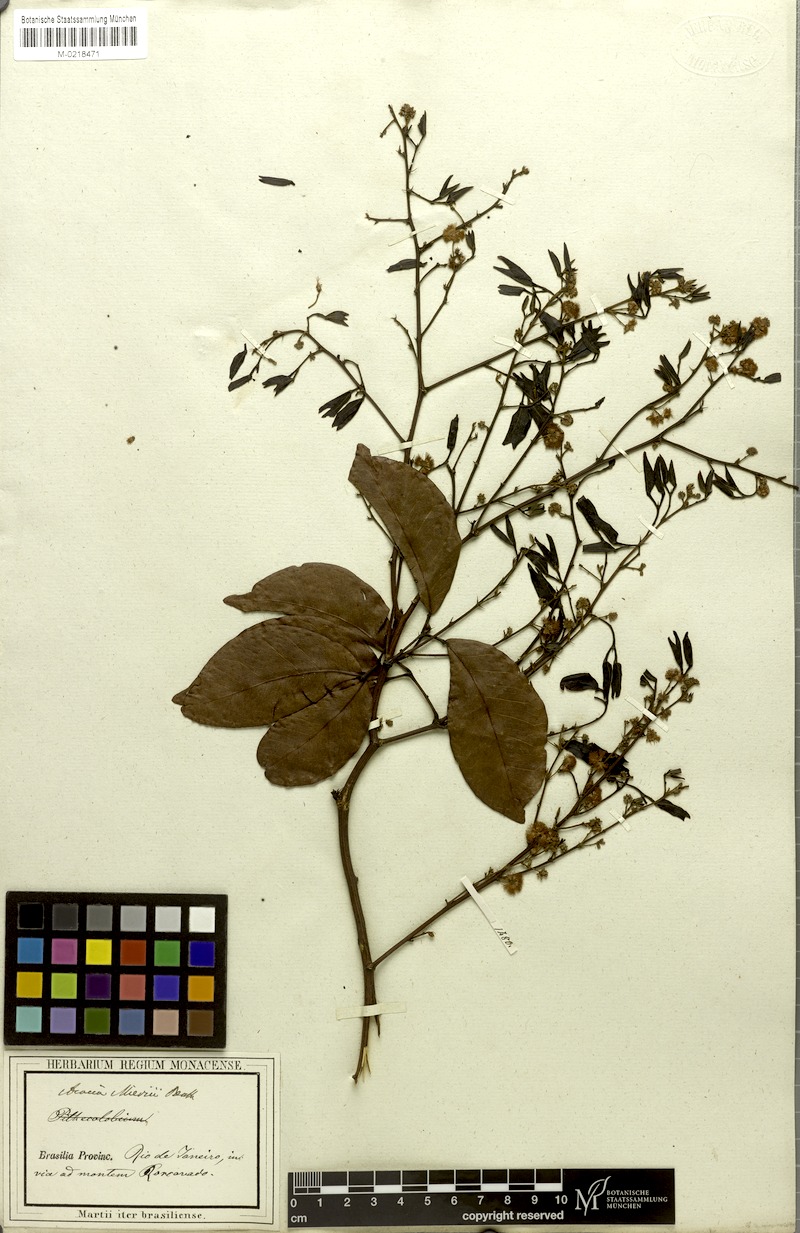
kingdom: Plantae
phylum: Tracheophyta
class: Magnoliopsida
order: Fabales
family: Fabaceae
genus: Parasenegalia
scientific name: Parasenegalia miersii
